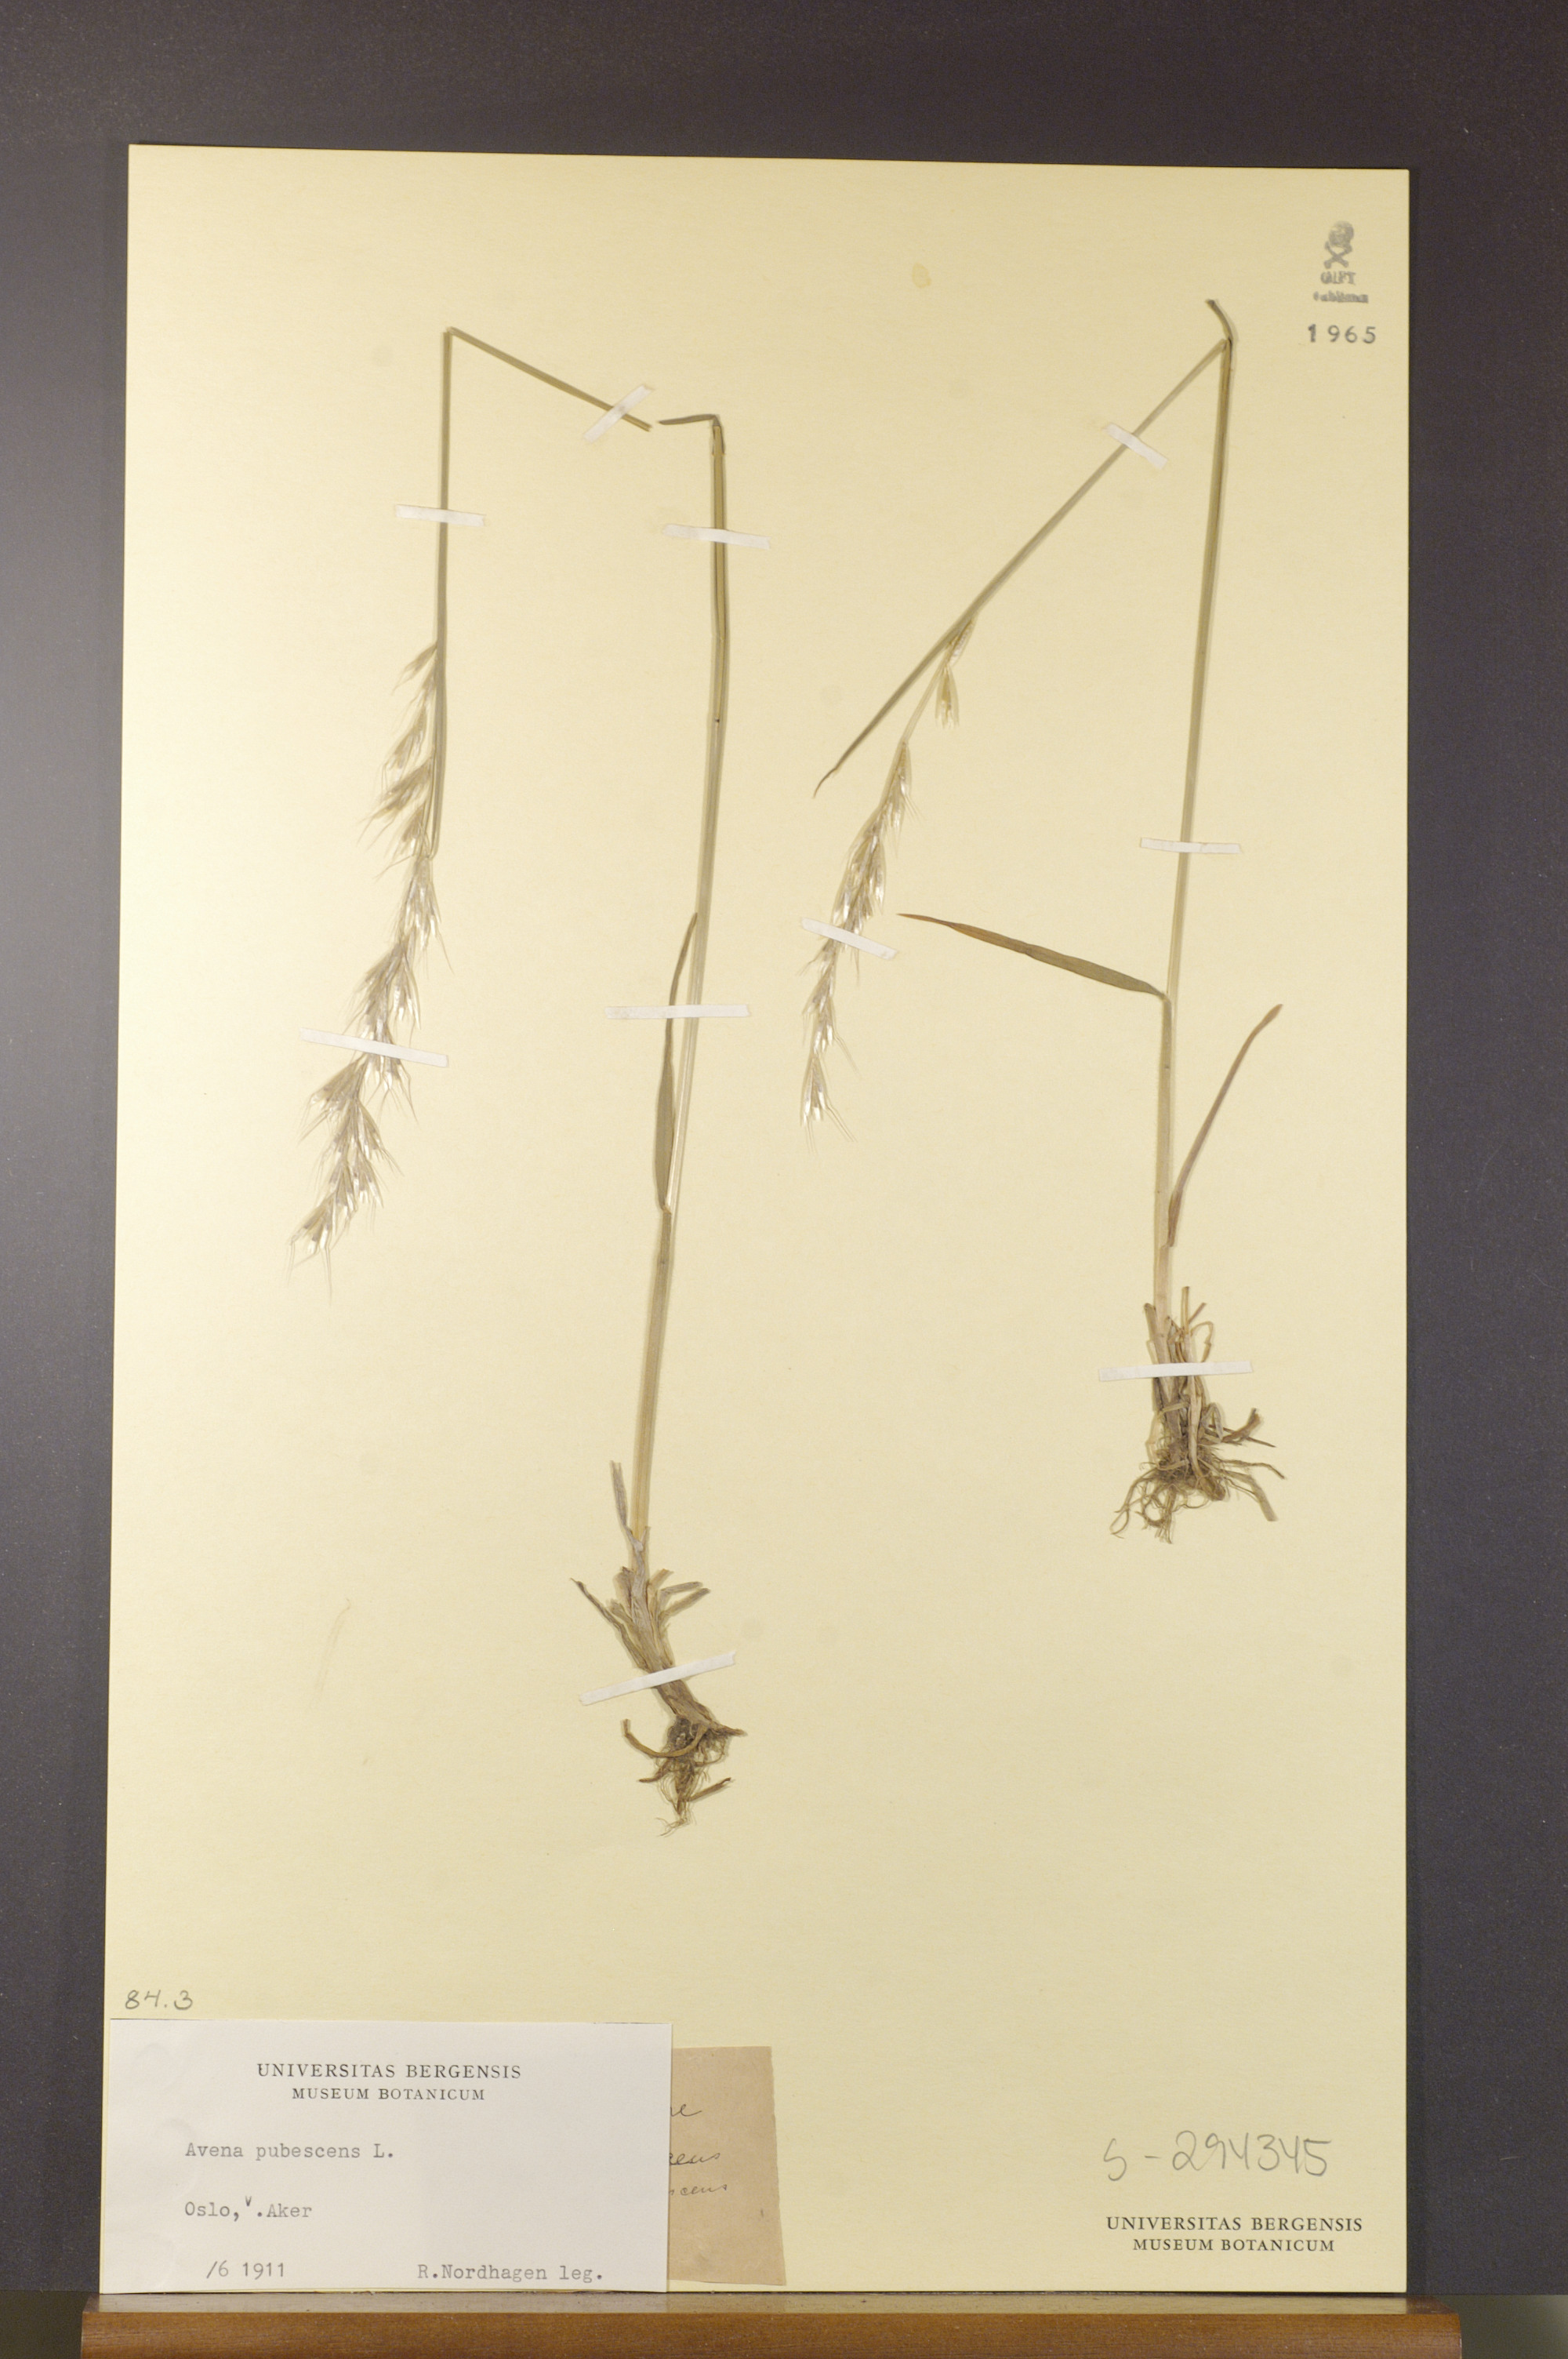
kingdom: Plantae
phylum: Tracheophyta
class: Liliopsida
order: Poales
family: Poaceae
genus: Avenula
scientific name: Avenula pubescens
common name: Downy alpine oatgrass
